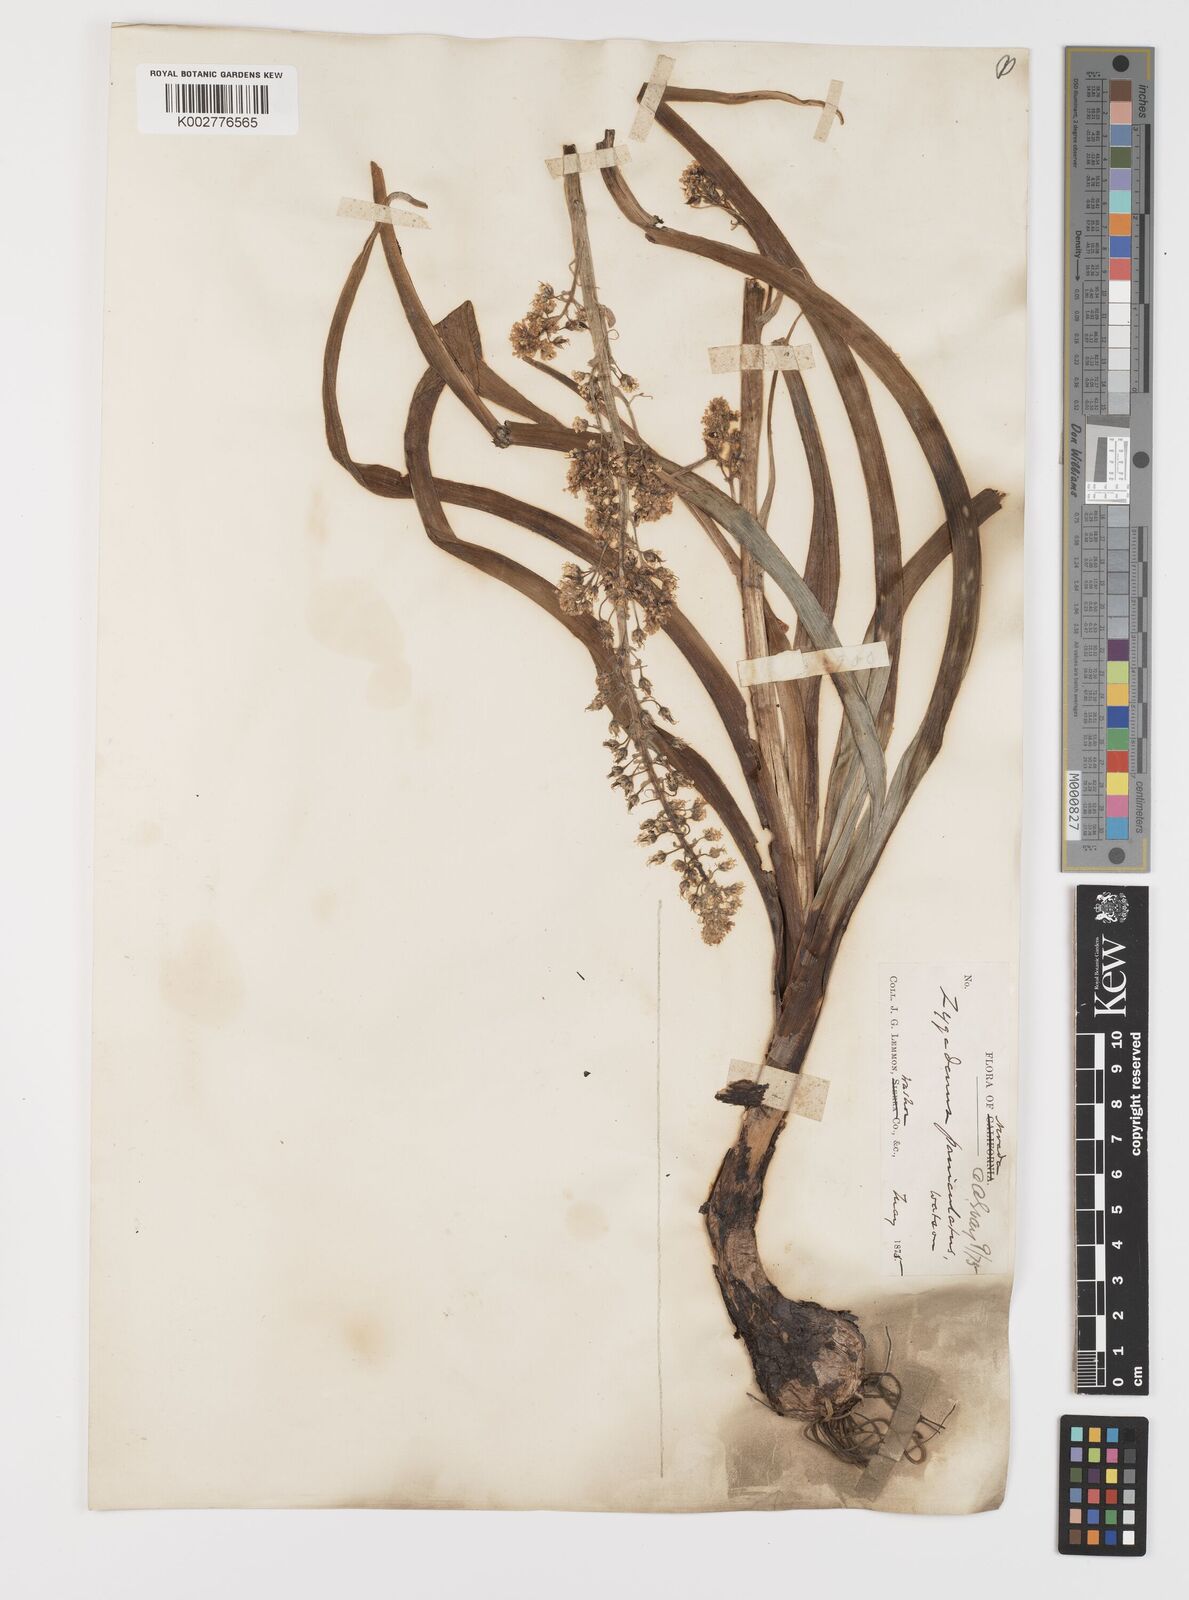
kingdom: Plantae
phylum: Tracheophyta
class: Liliopsida
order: Liliales
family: Melanthiaceae
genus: Toxicoscordion
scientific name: Toxicoscordion paniculatum
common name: Foothill death camas
